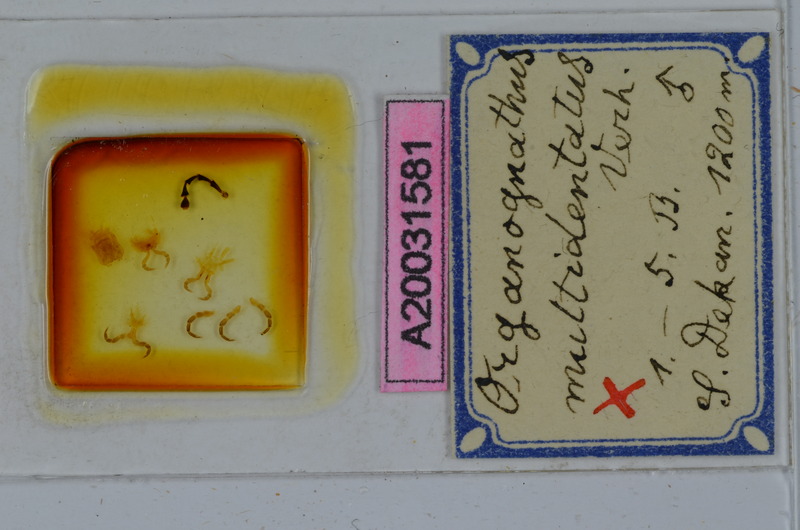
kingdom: Animalia
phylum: Arthropoda
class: Diplopoda
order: Spirostreptida
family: Harpagophoridae
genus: Organognathus
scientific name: Organognathus multidentatus
